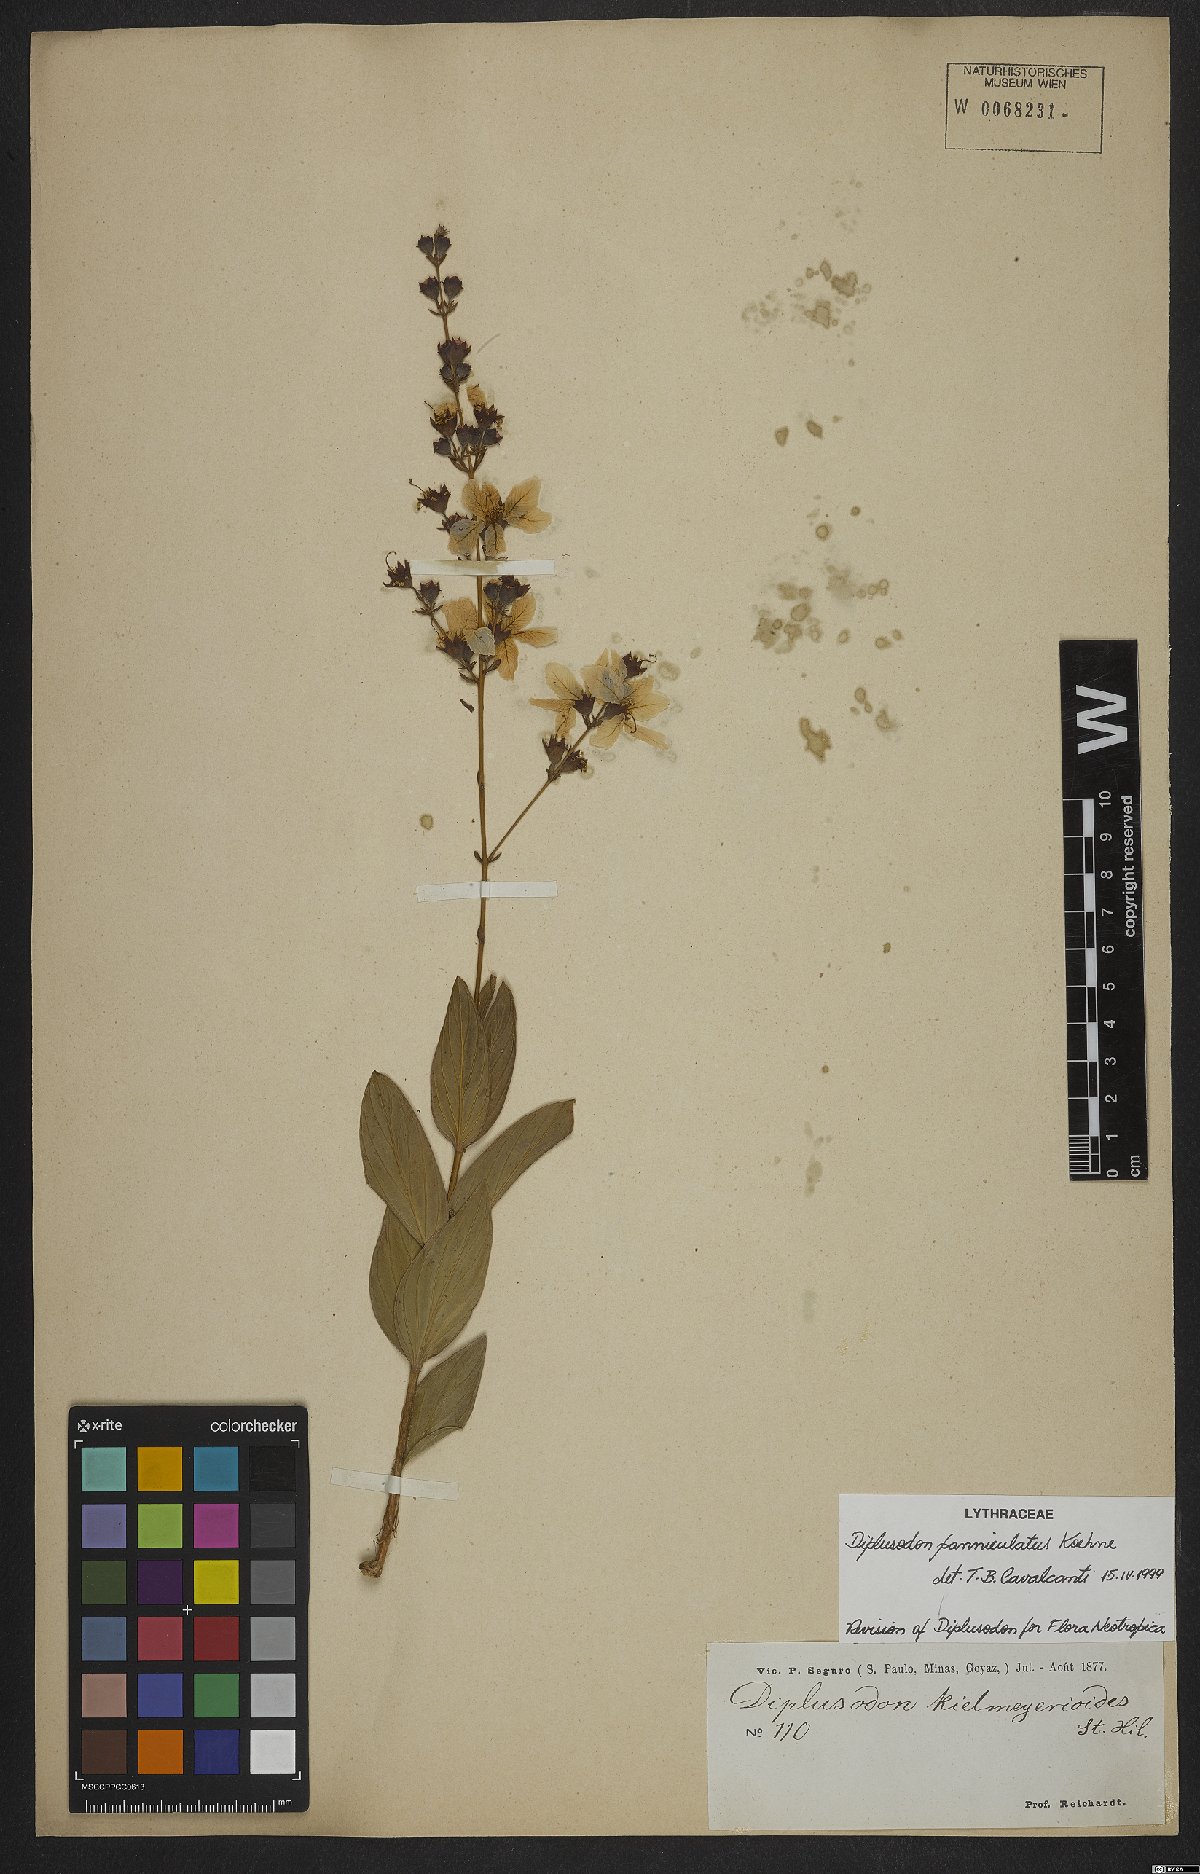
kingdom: Plantae
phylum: Tracheophyta
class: Magnoliopsida
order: Myrtales
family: Lythraceae
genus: Diplusodon
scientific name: Diplusodon panniculatus
